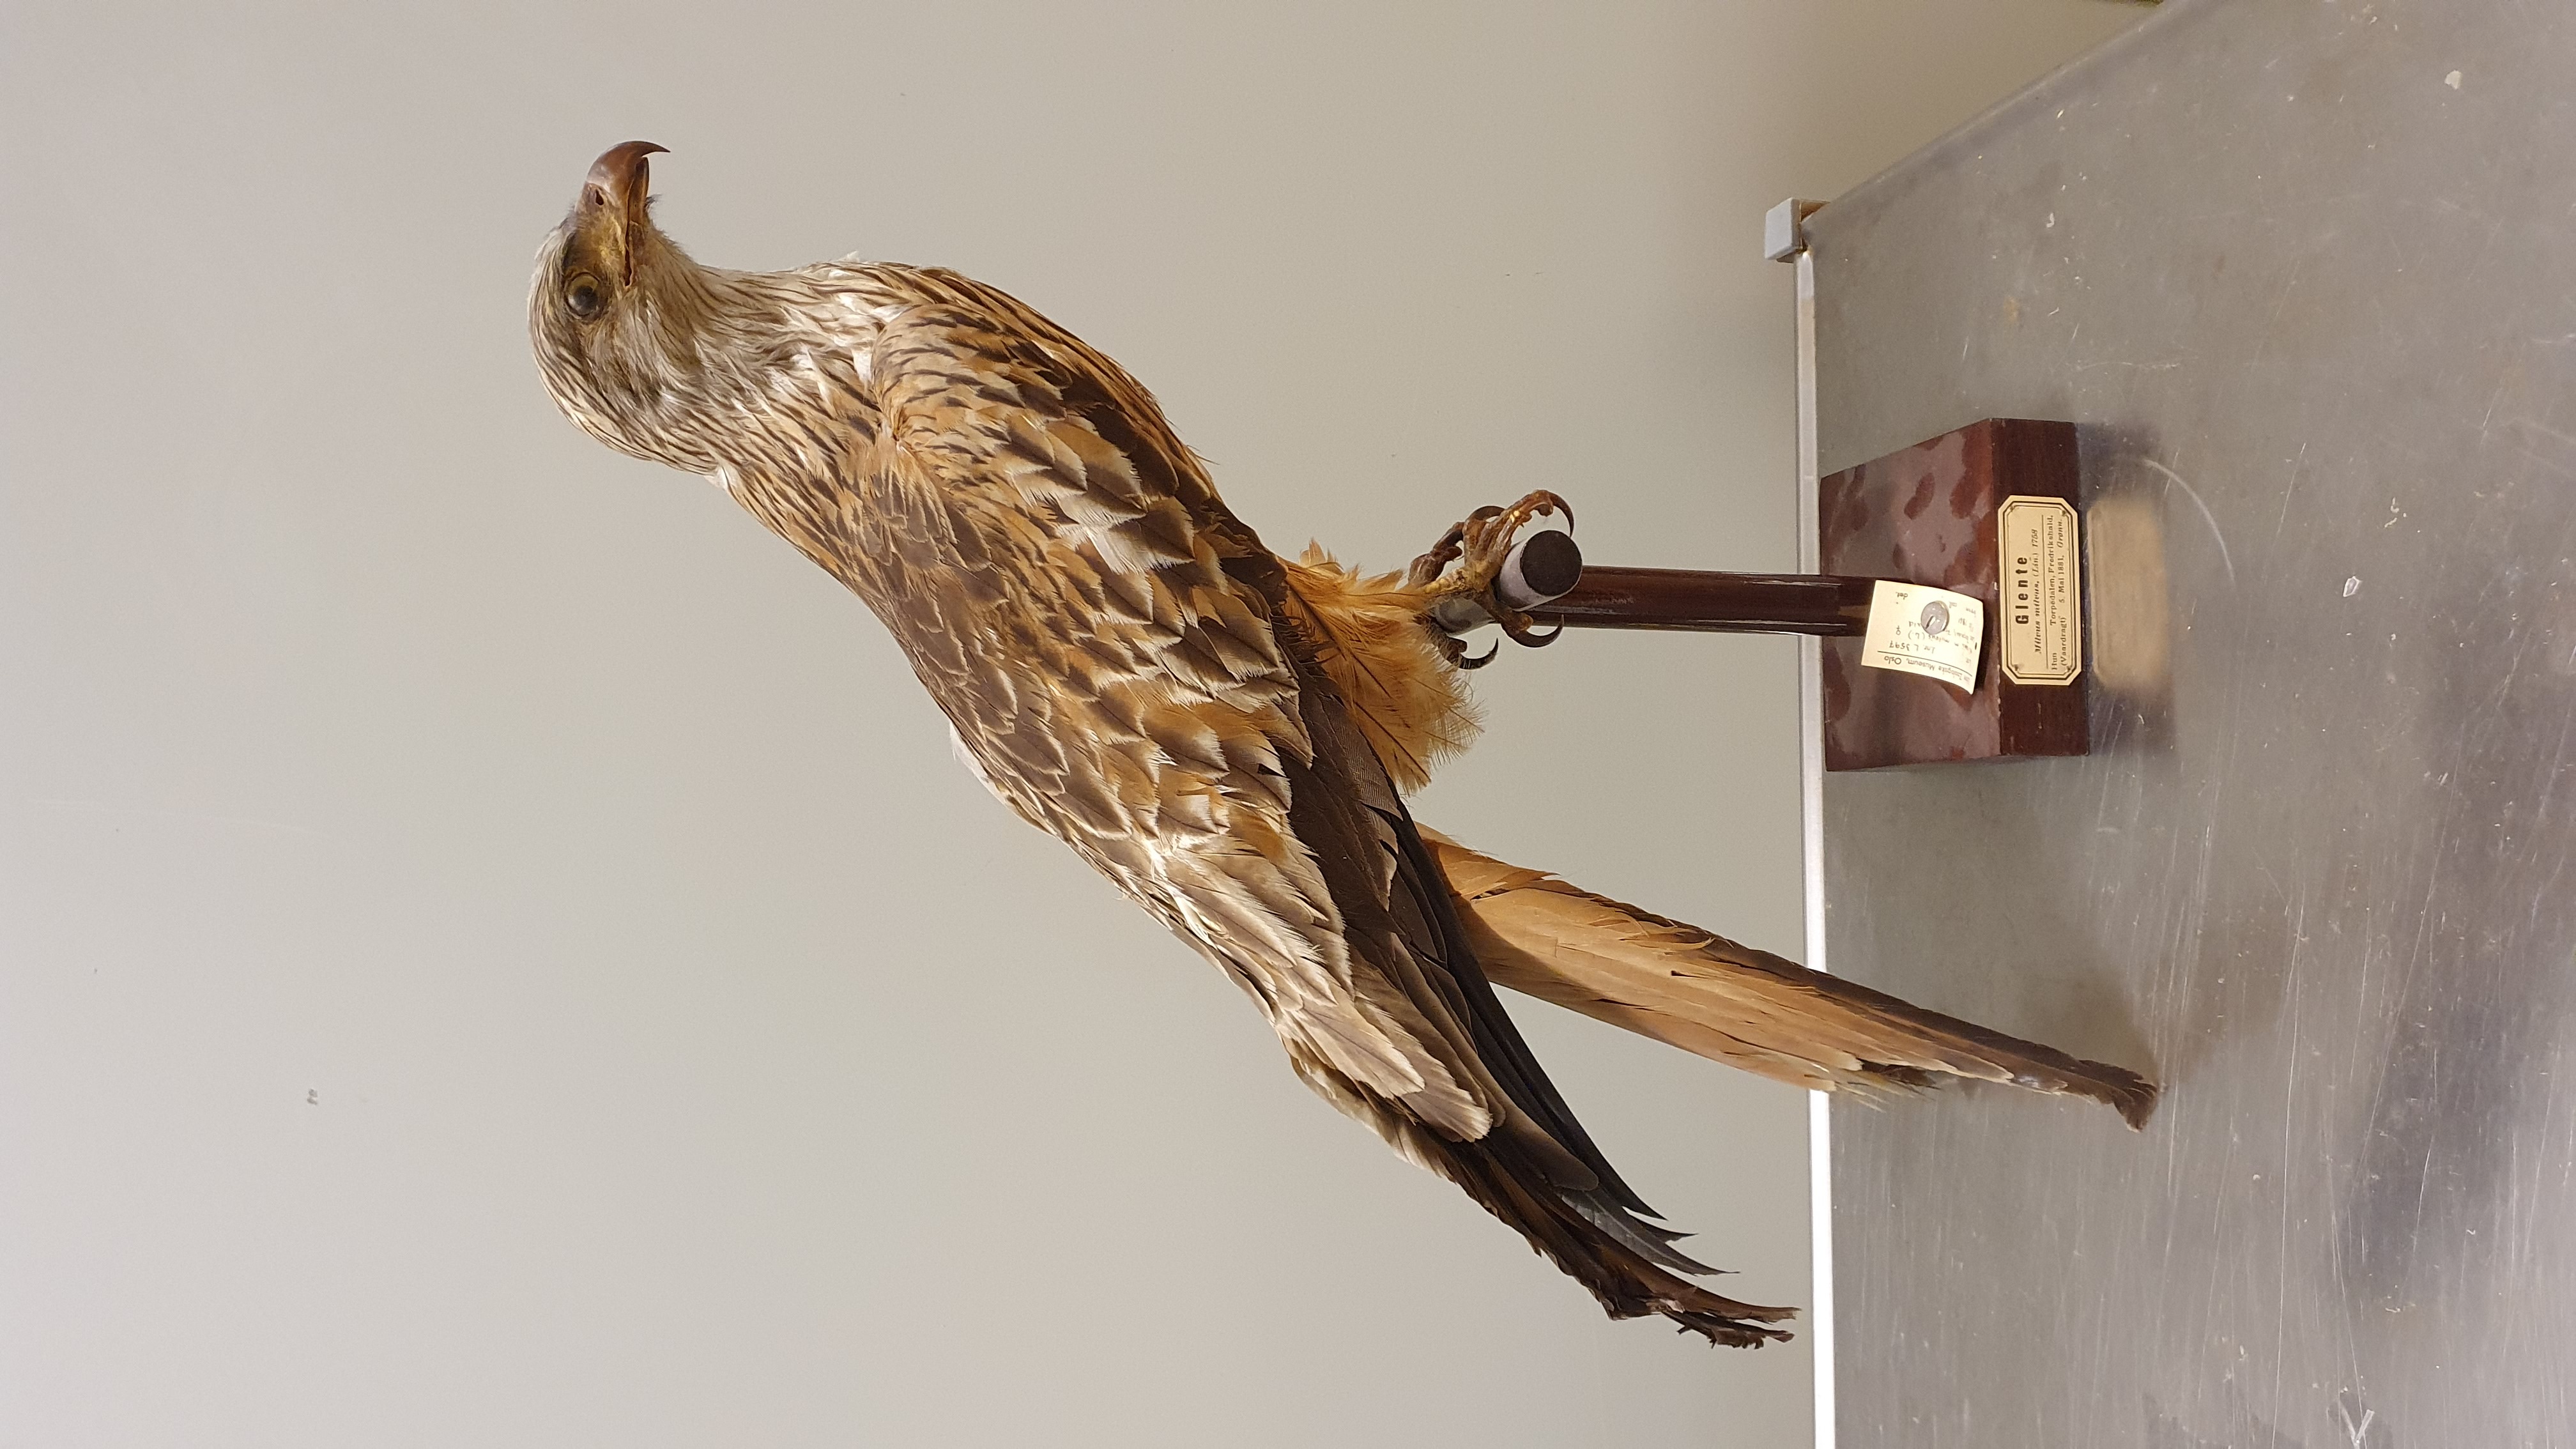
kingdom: Animalia
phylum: Chordata
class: Aves
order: Accipitriformes
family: Accipitridae
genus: Milvus
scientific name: Milvus milvus
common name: Red kite
